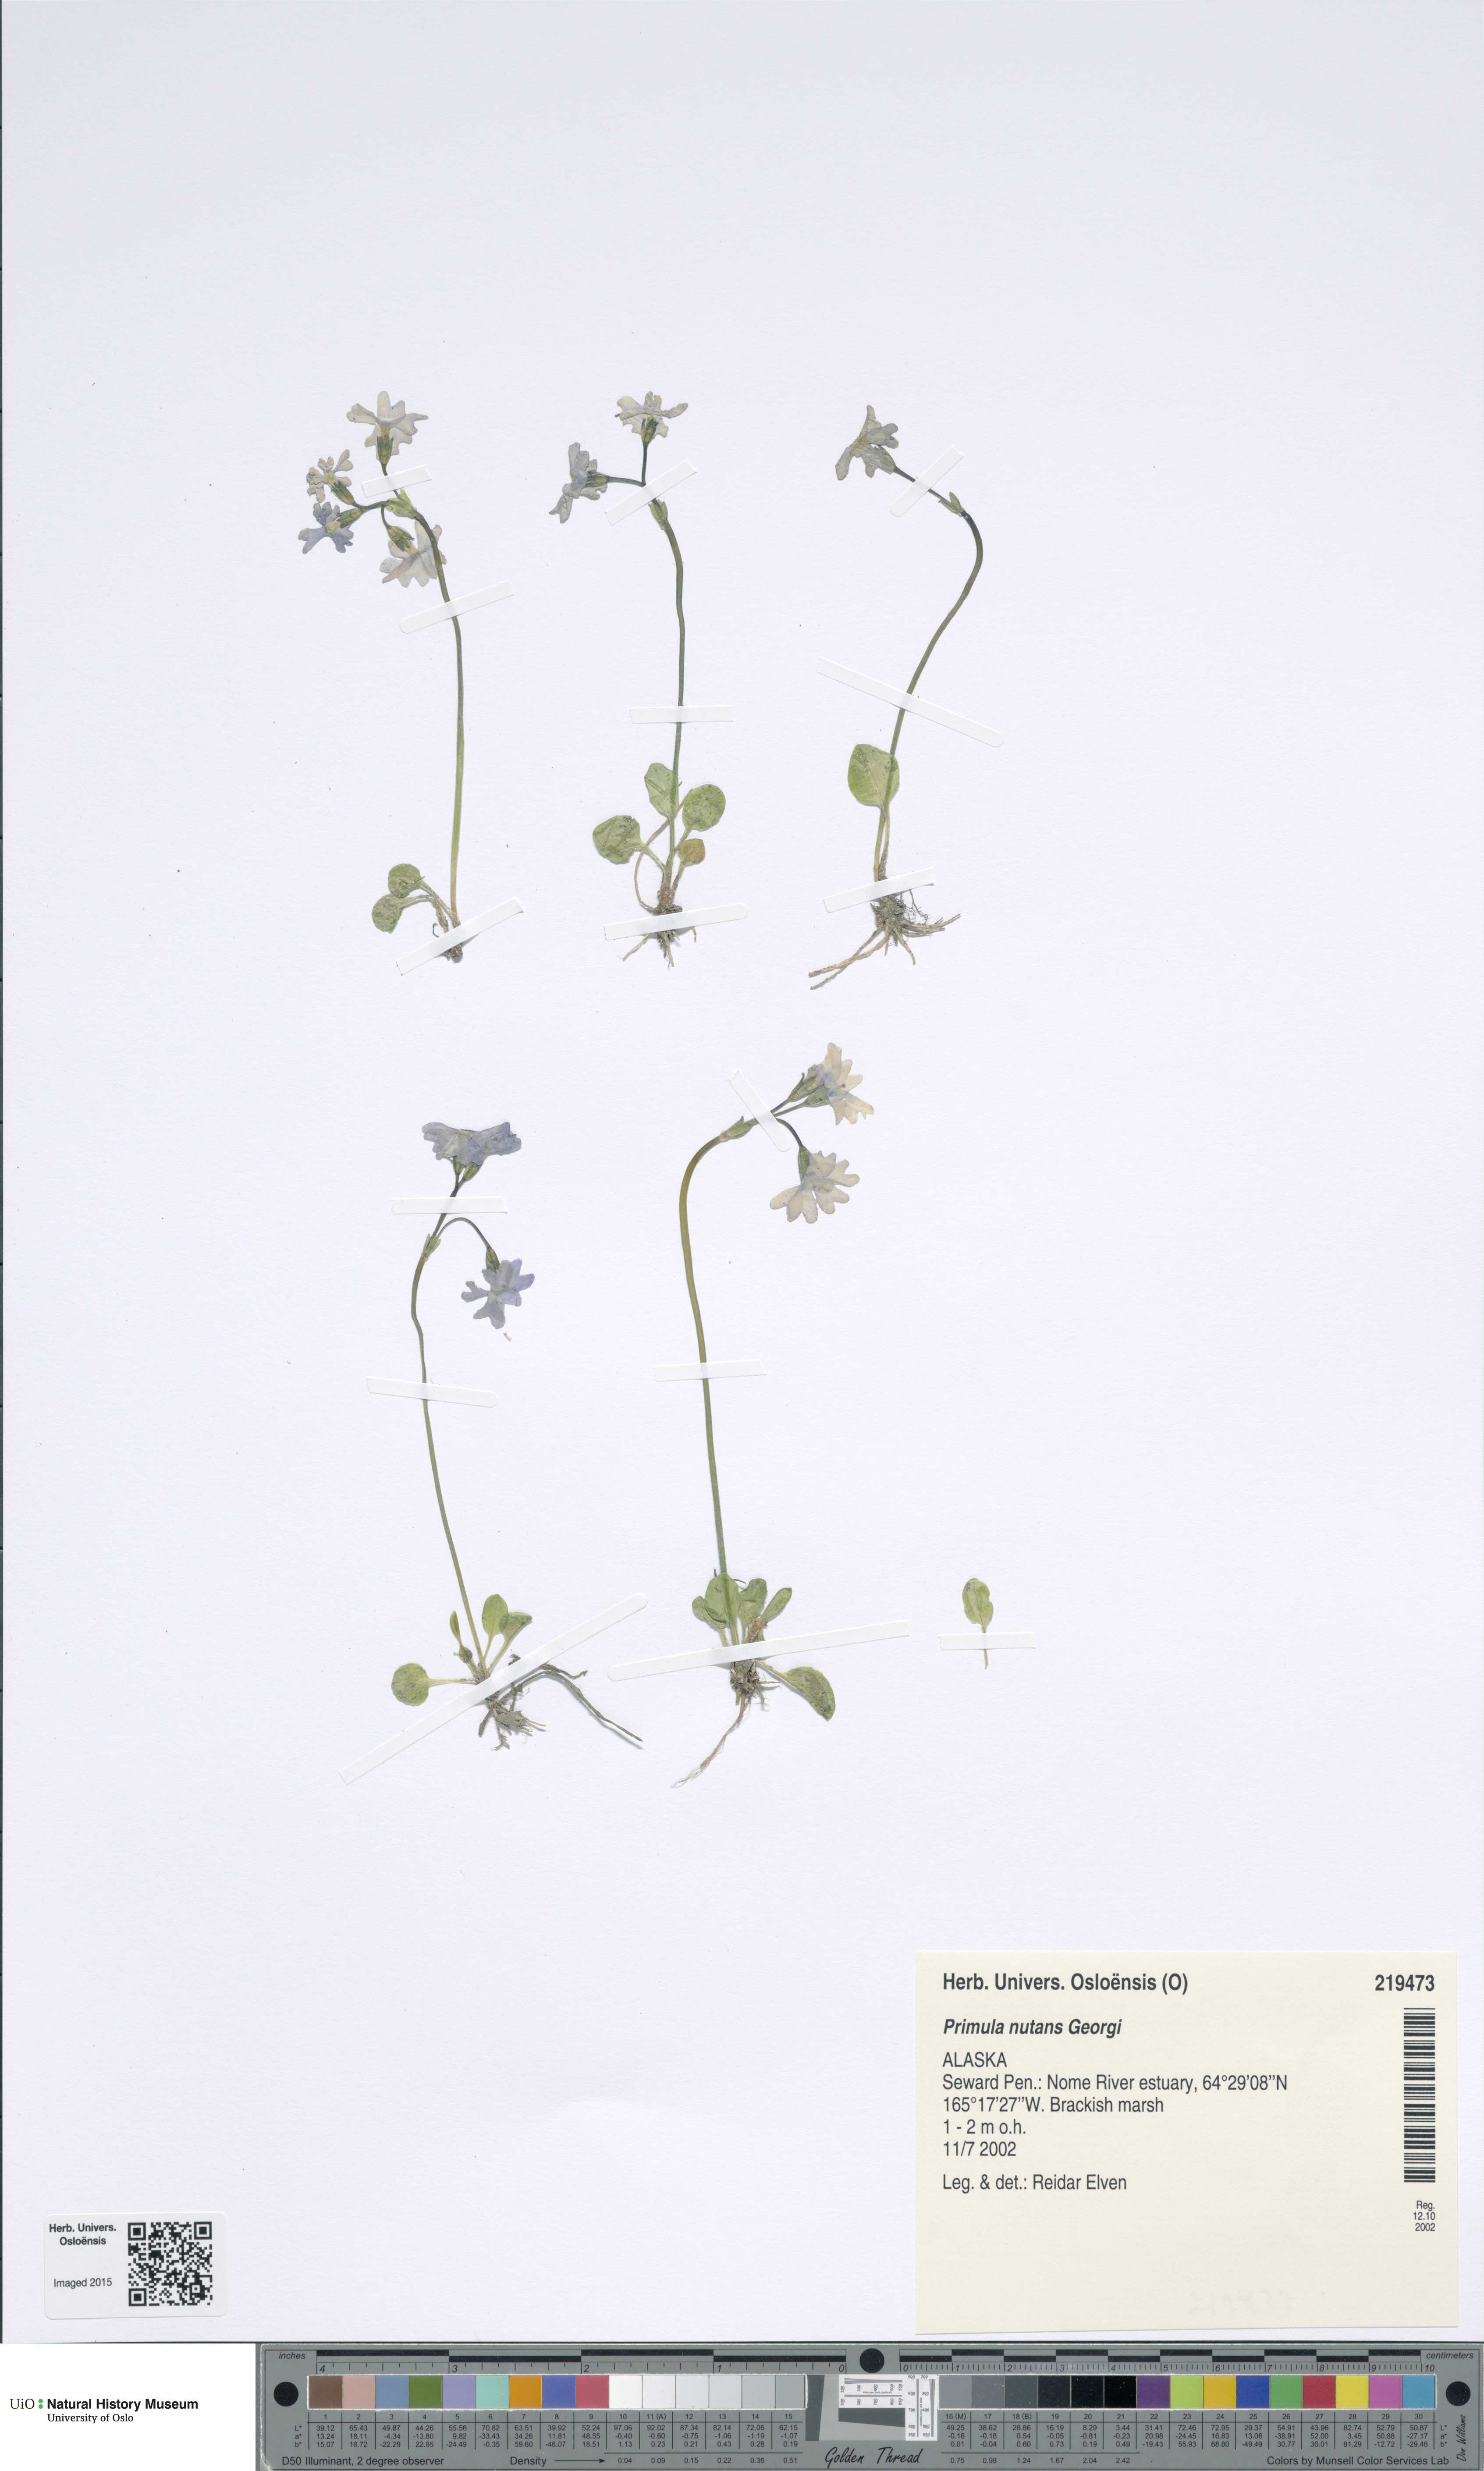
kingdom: Plantae
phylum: Tracheophyta
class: Magnoliopsida
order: Ericales
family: Primulaceae
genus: Primula
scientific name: Primula nutans
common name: Siberian primrose
